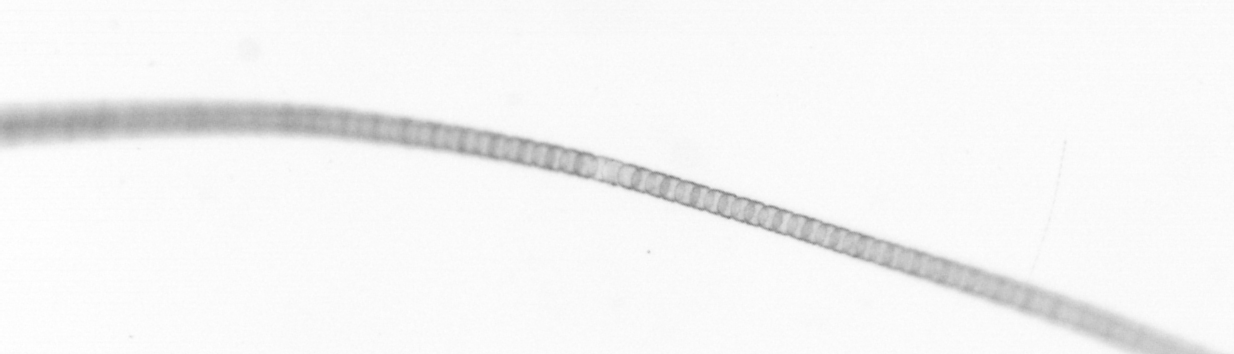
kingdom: Chromista
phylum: Ochrophyta
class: Bacillariophyceae
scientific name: Bacillariophyceae
